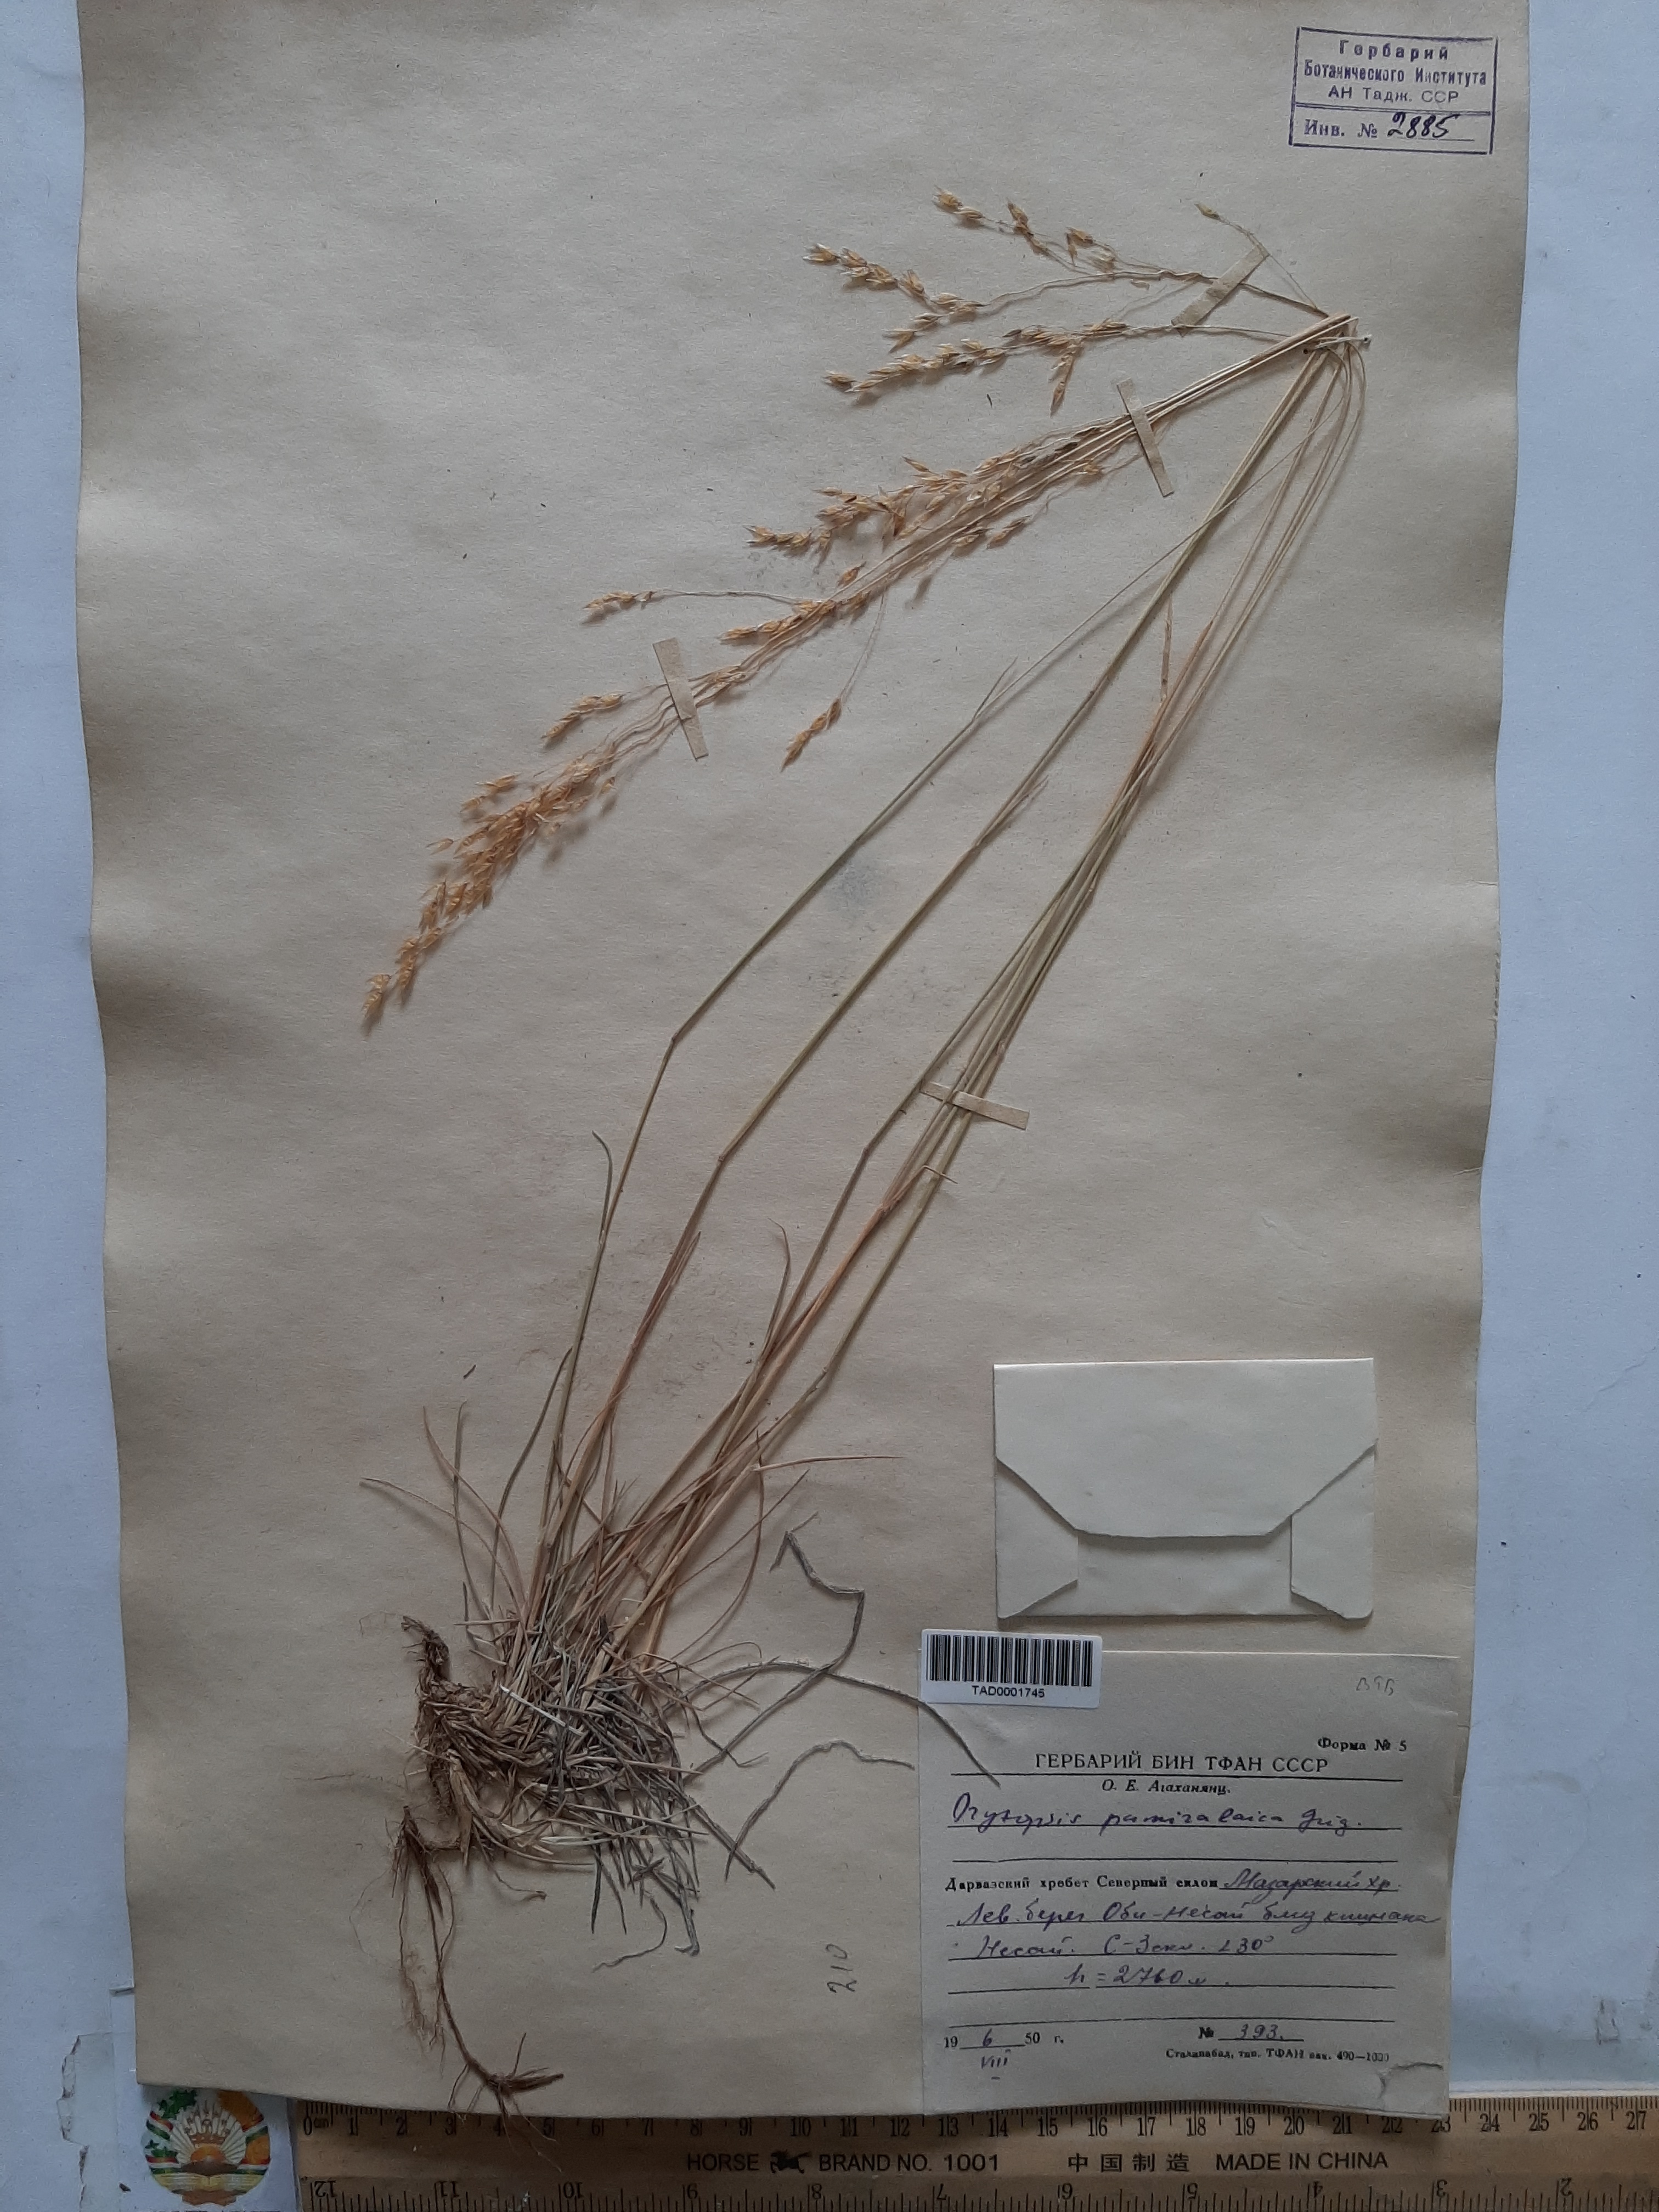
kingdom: Plantae
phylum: Tracheophyta
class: Liliopsida
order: Poales
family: Poaceae
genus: Piptatherum
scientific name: Piptatherum pamiralaicum
